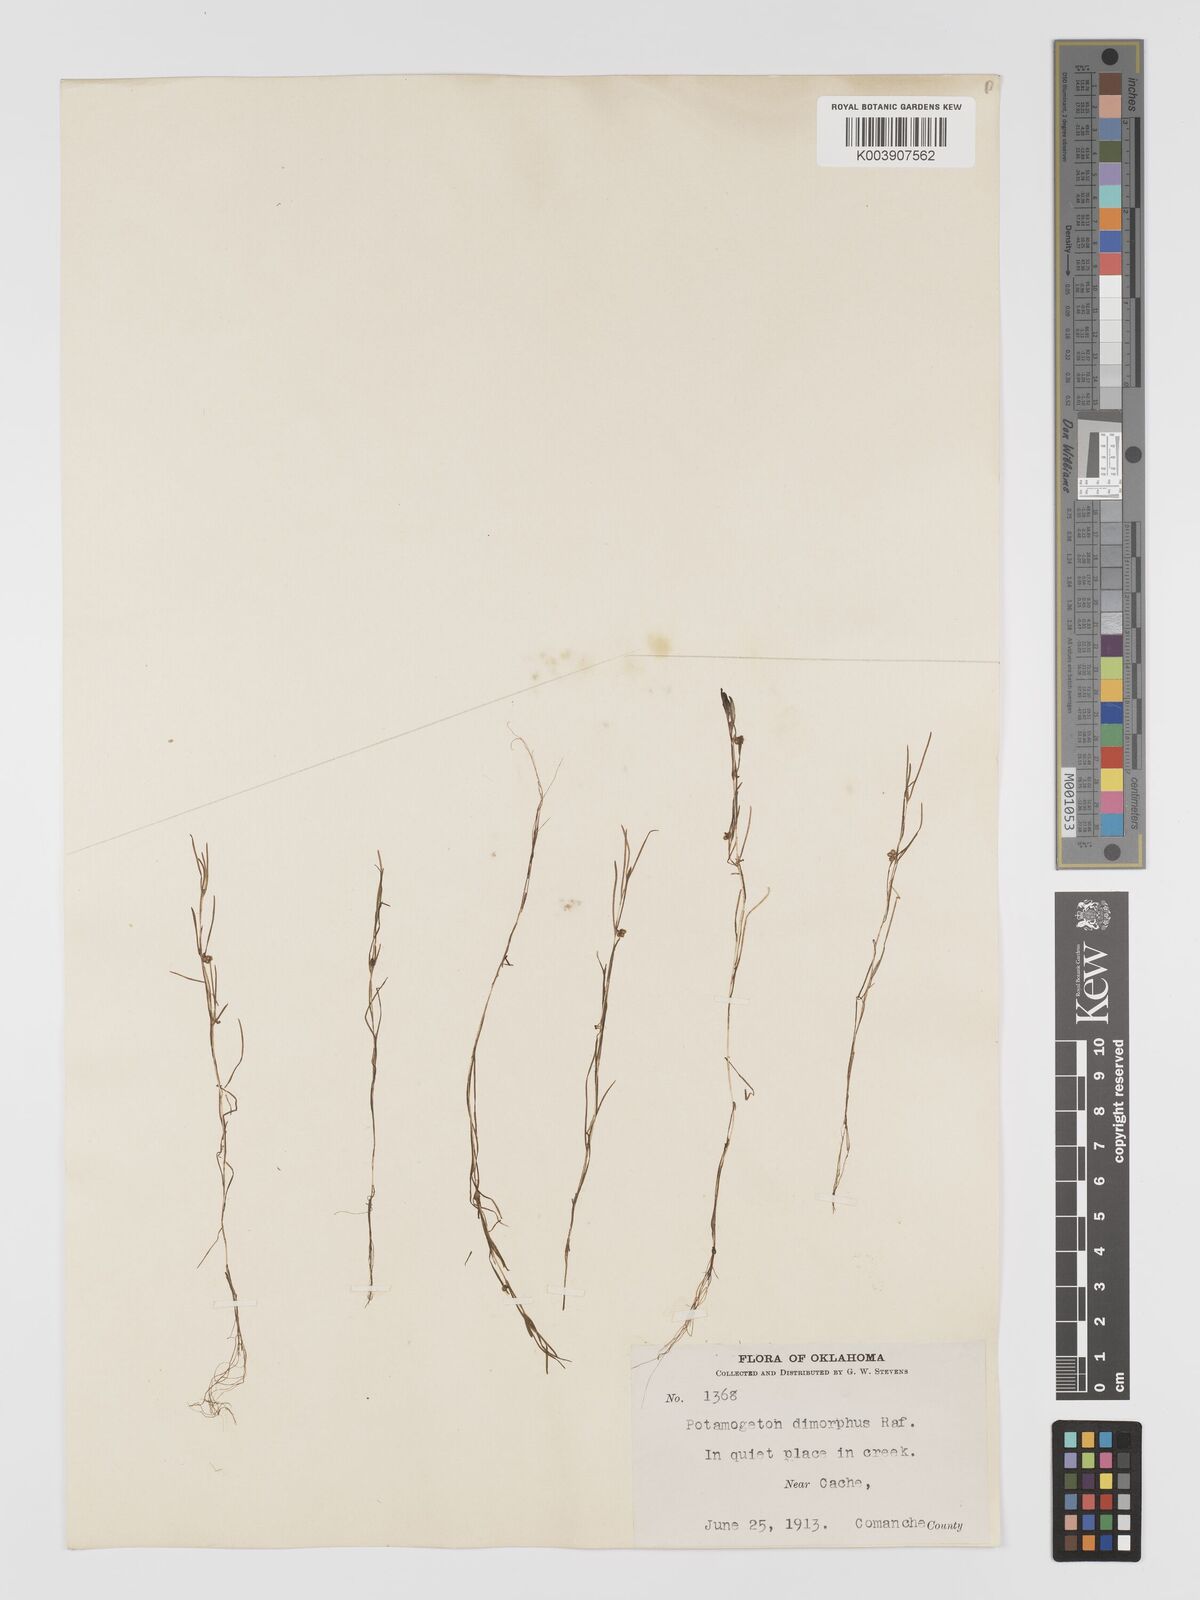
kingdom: Plantae
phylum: Tracheophyta
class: Liliopsida
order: Alismatales
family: Potamogetonaceae
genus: Potamogeton
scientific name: Potamogeton bicupulatus
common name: Snail-seed pondweed
